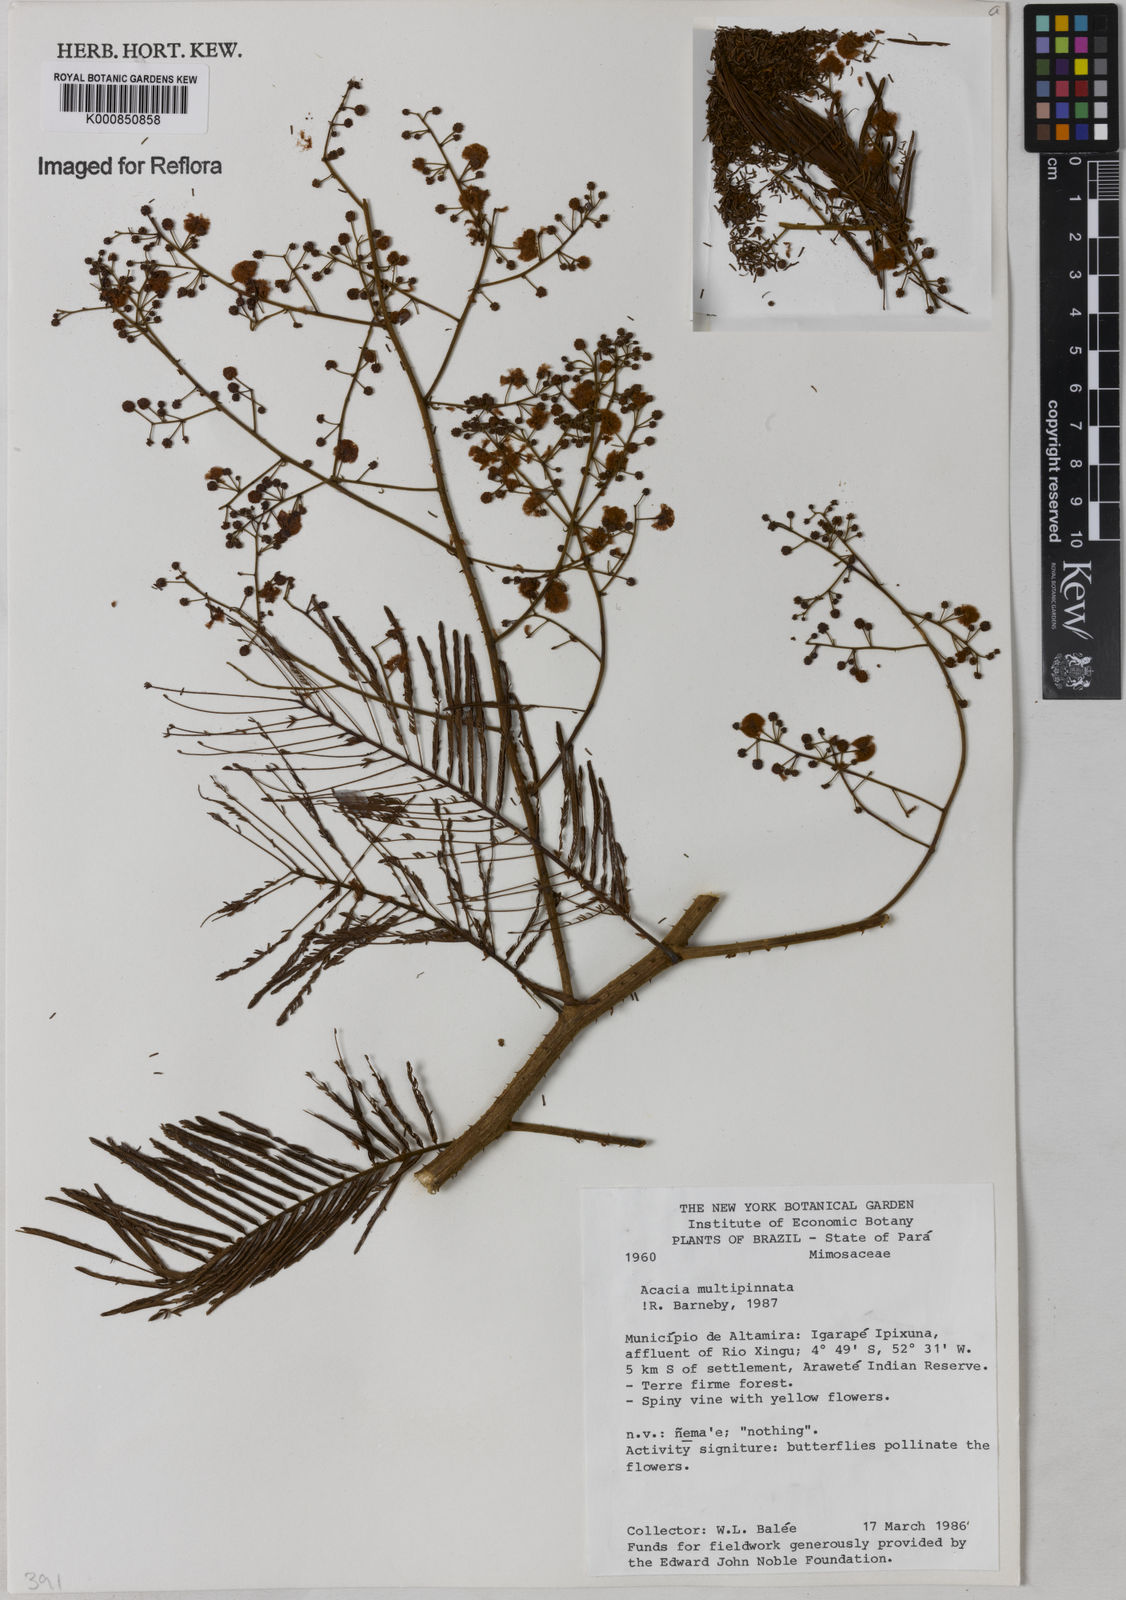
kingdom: Plantae
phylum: Tracheophyta
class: Magnoliopsida
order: Fabales
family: Fabaceae
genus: Senegalia
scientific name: Senegalia paniculata
